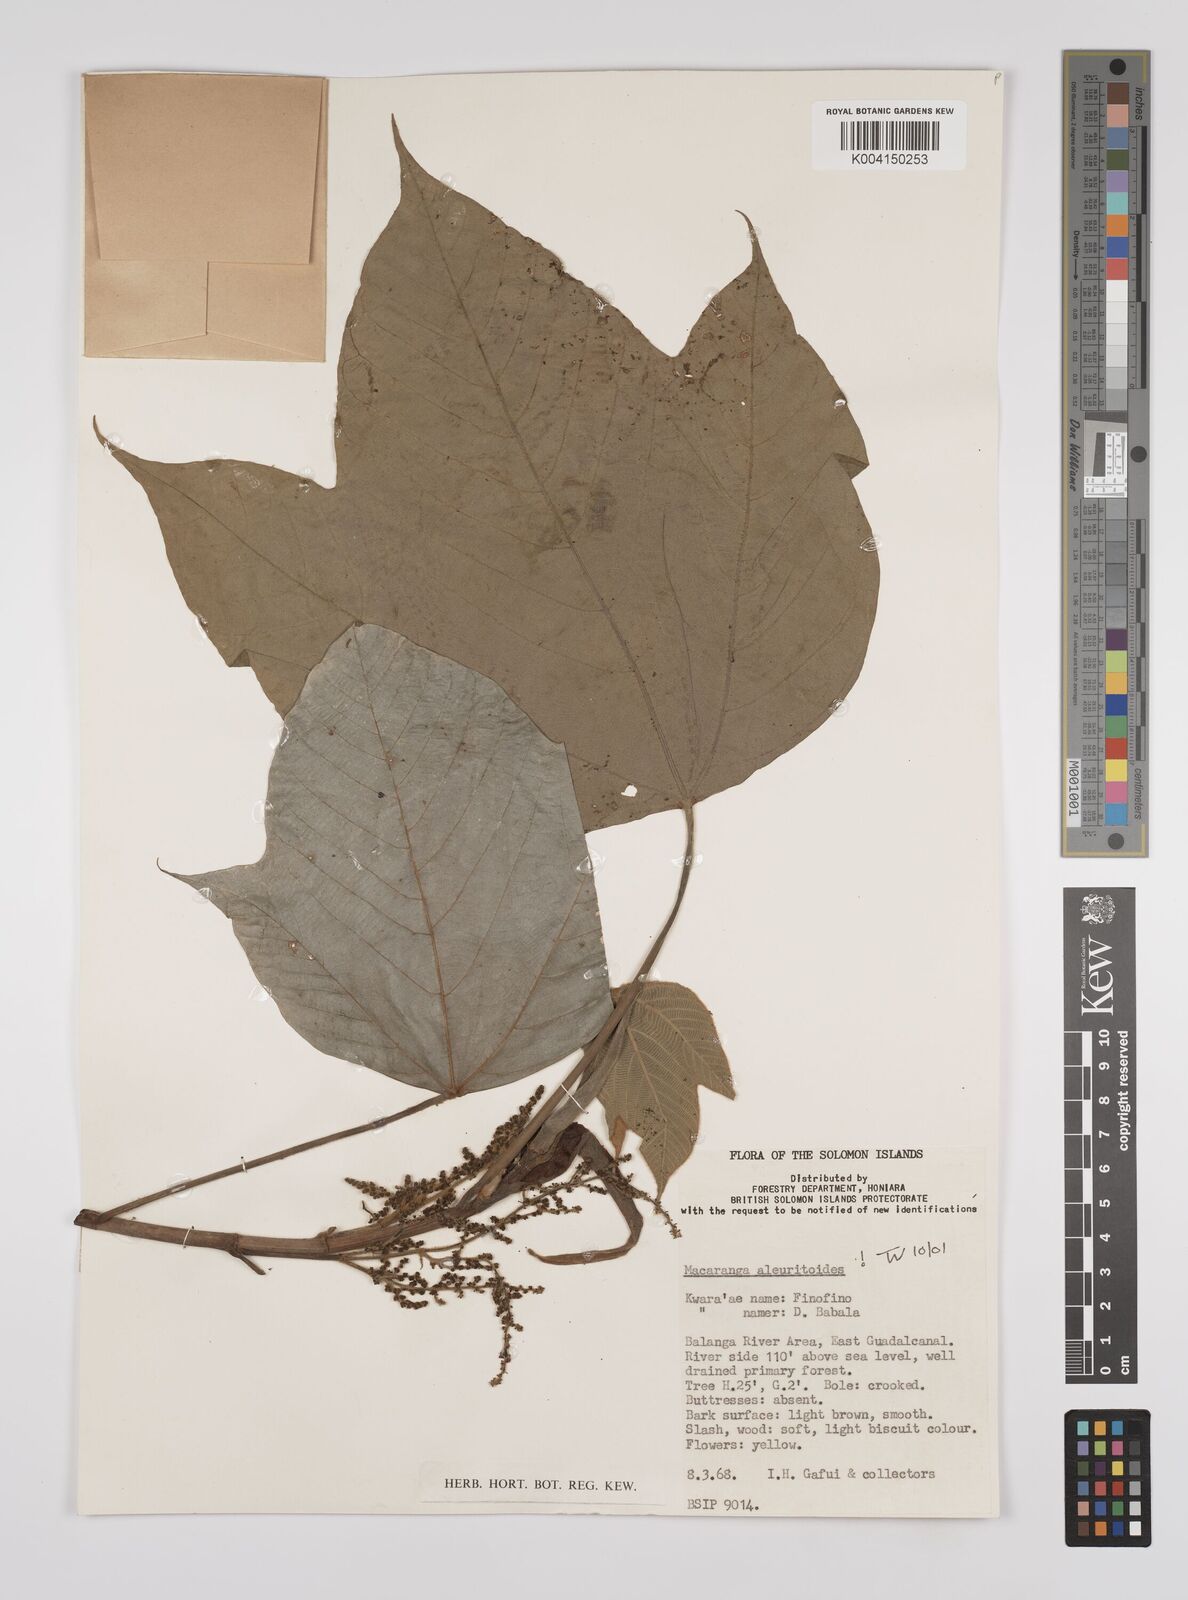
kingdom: Plantae
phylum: Tracheophyta
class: Magnoliopsida
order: Malpighiales
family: Euphorbiaceae
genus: Macaranga
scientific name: Macaranga aleuritoides
